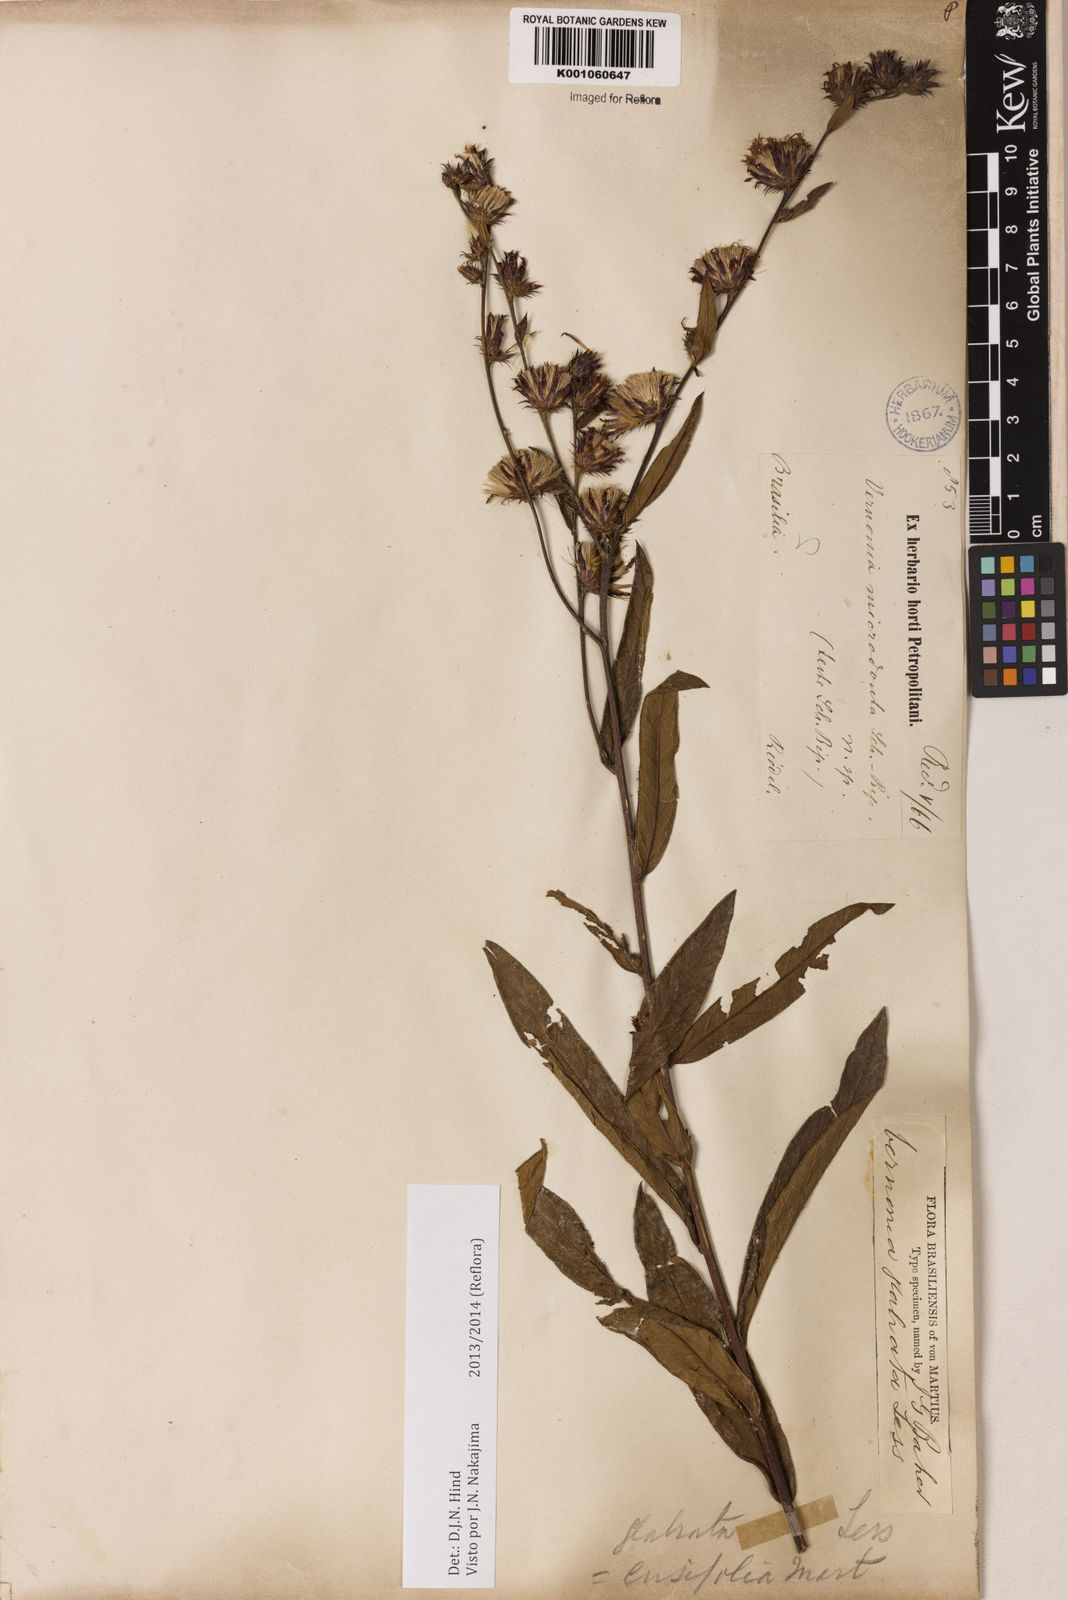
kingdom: Plantae
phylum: Tracheophyta
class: Magnoliopsida
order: Asterales
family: Asteraceae
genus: Lessingianthus
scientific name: Lessingianthus glabratus
